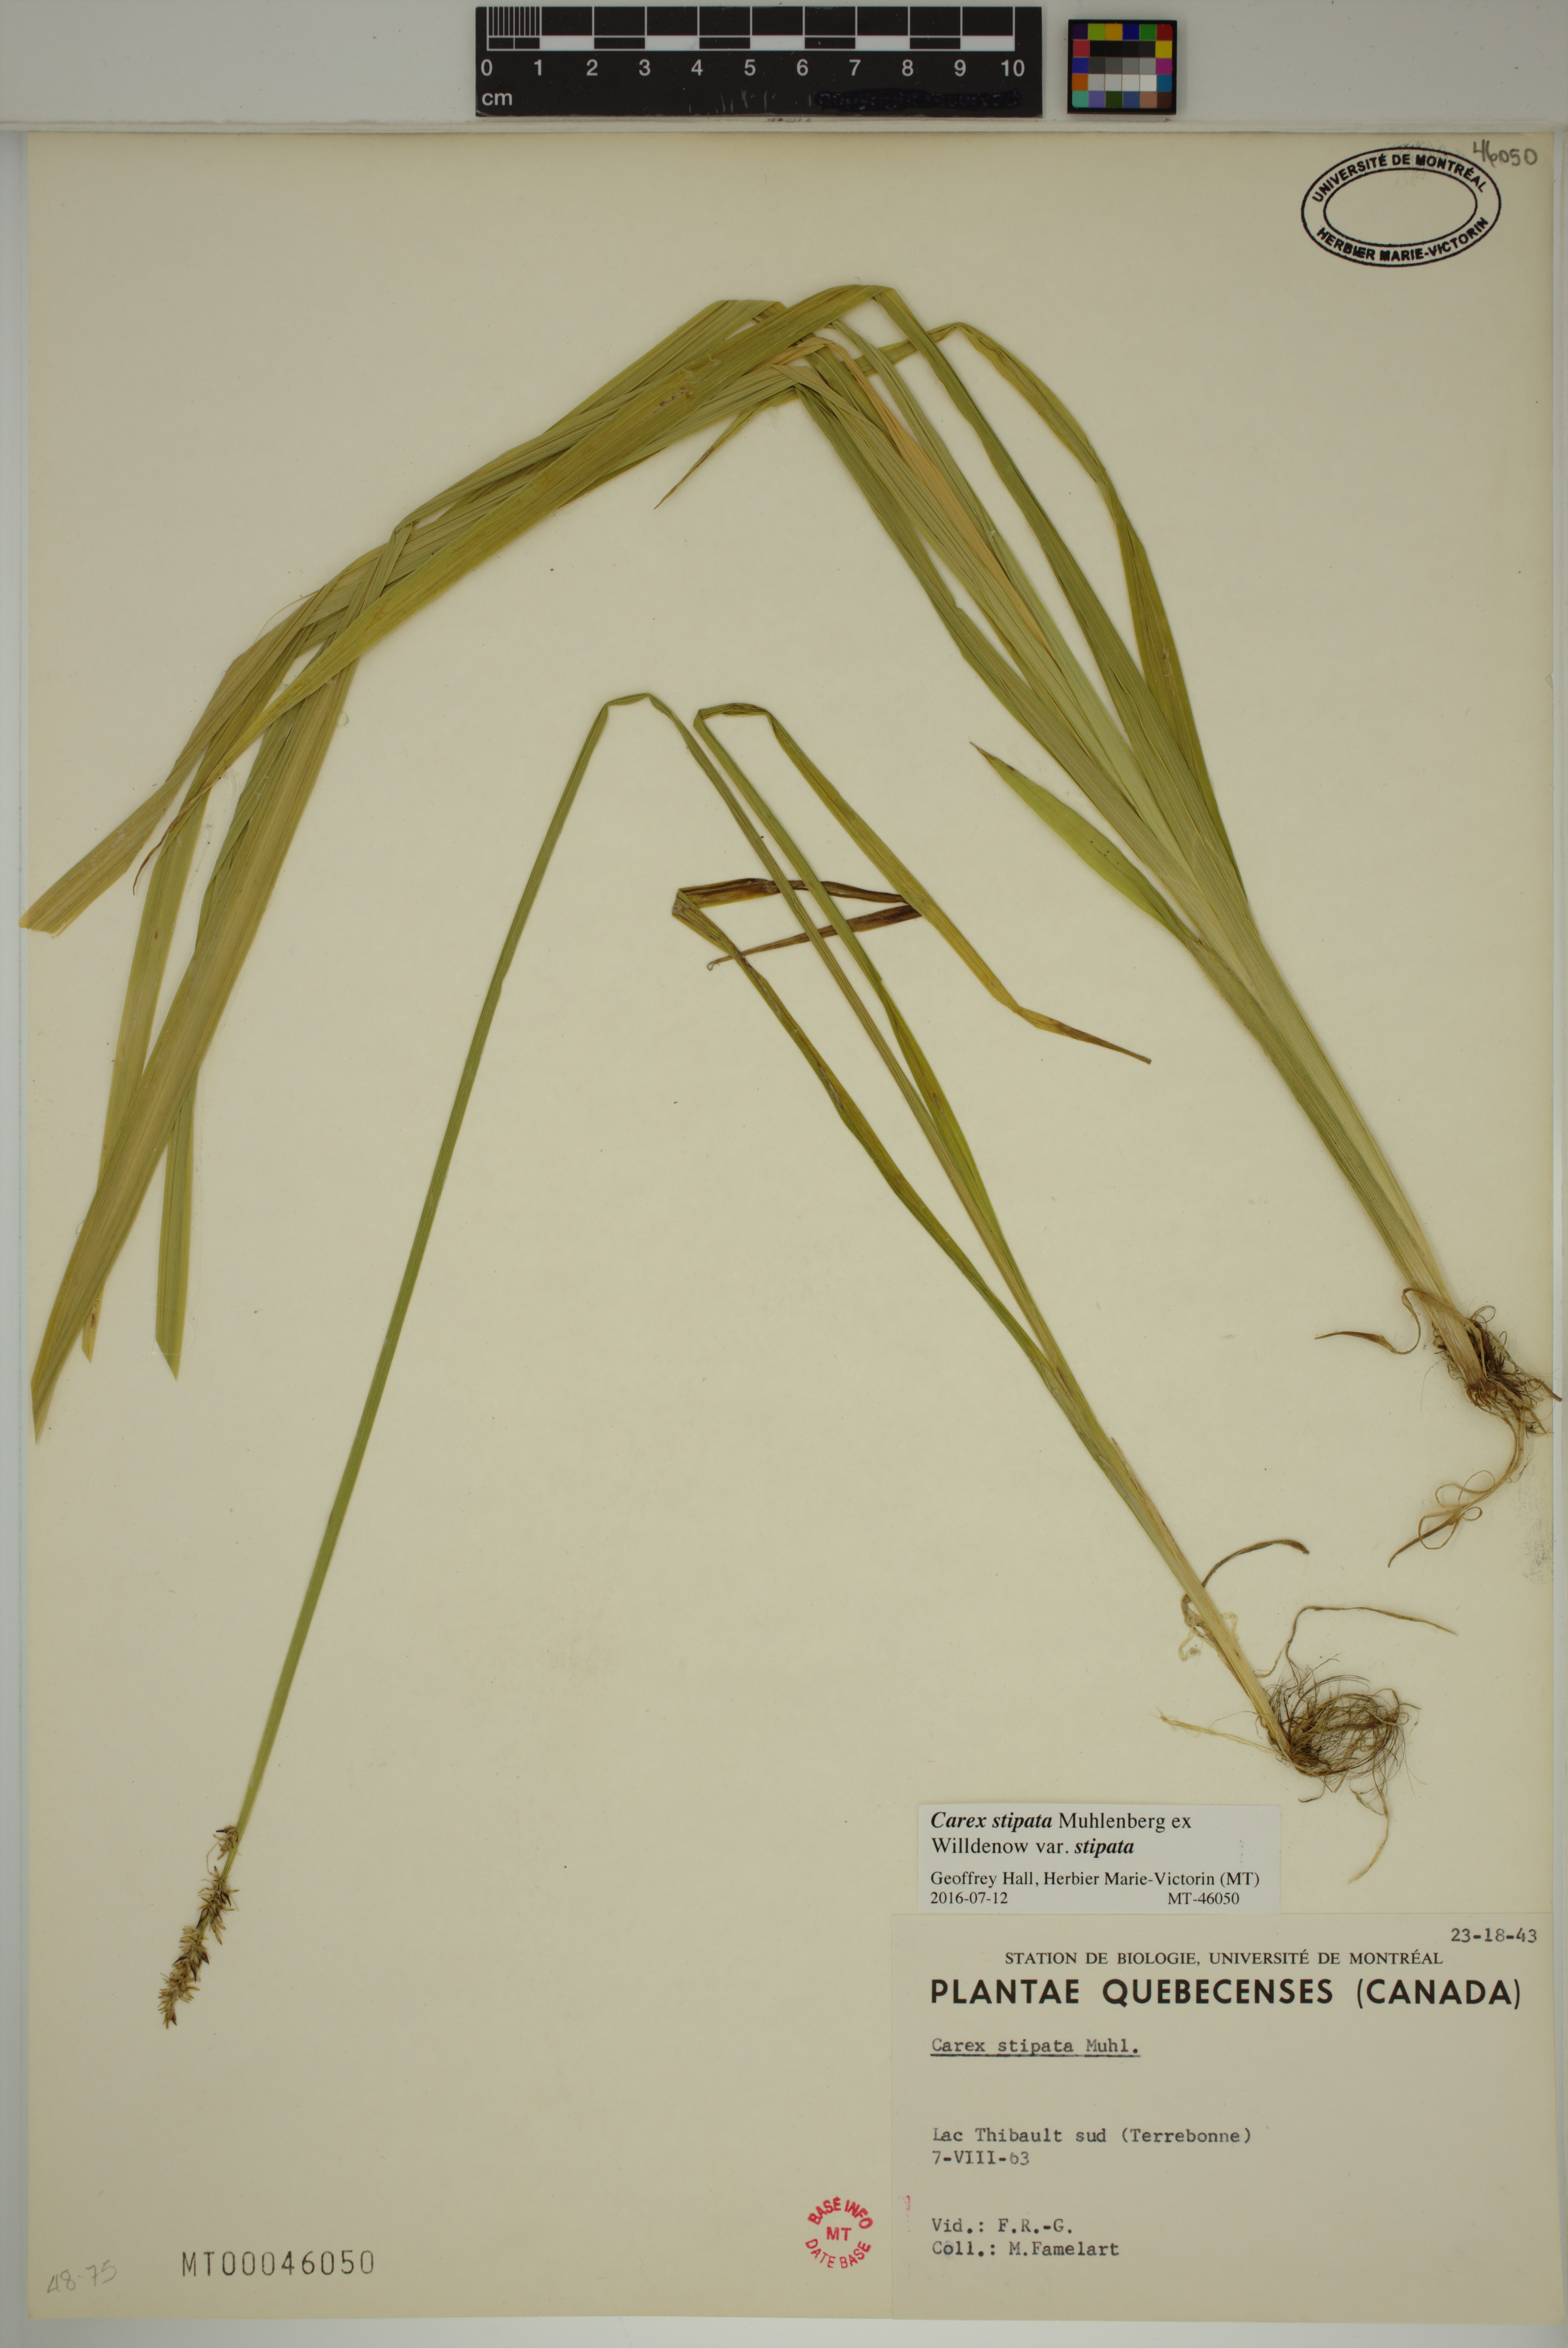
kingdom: Plantae
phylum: Tracheophyta
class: Liliopsida
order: Poales
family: Cyperaceae
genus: Carex
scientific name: Carex stipata
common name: Awl-fruited sedge
